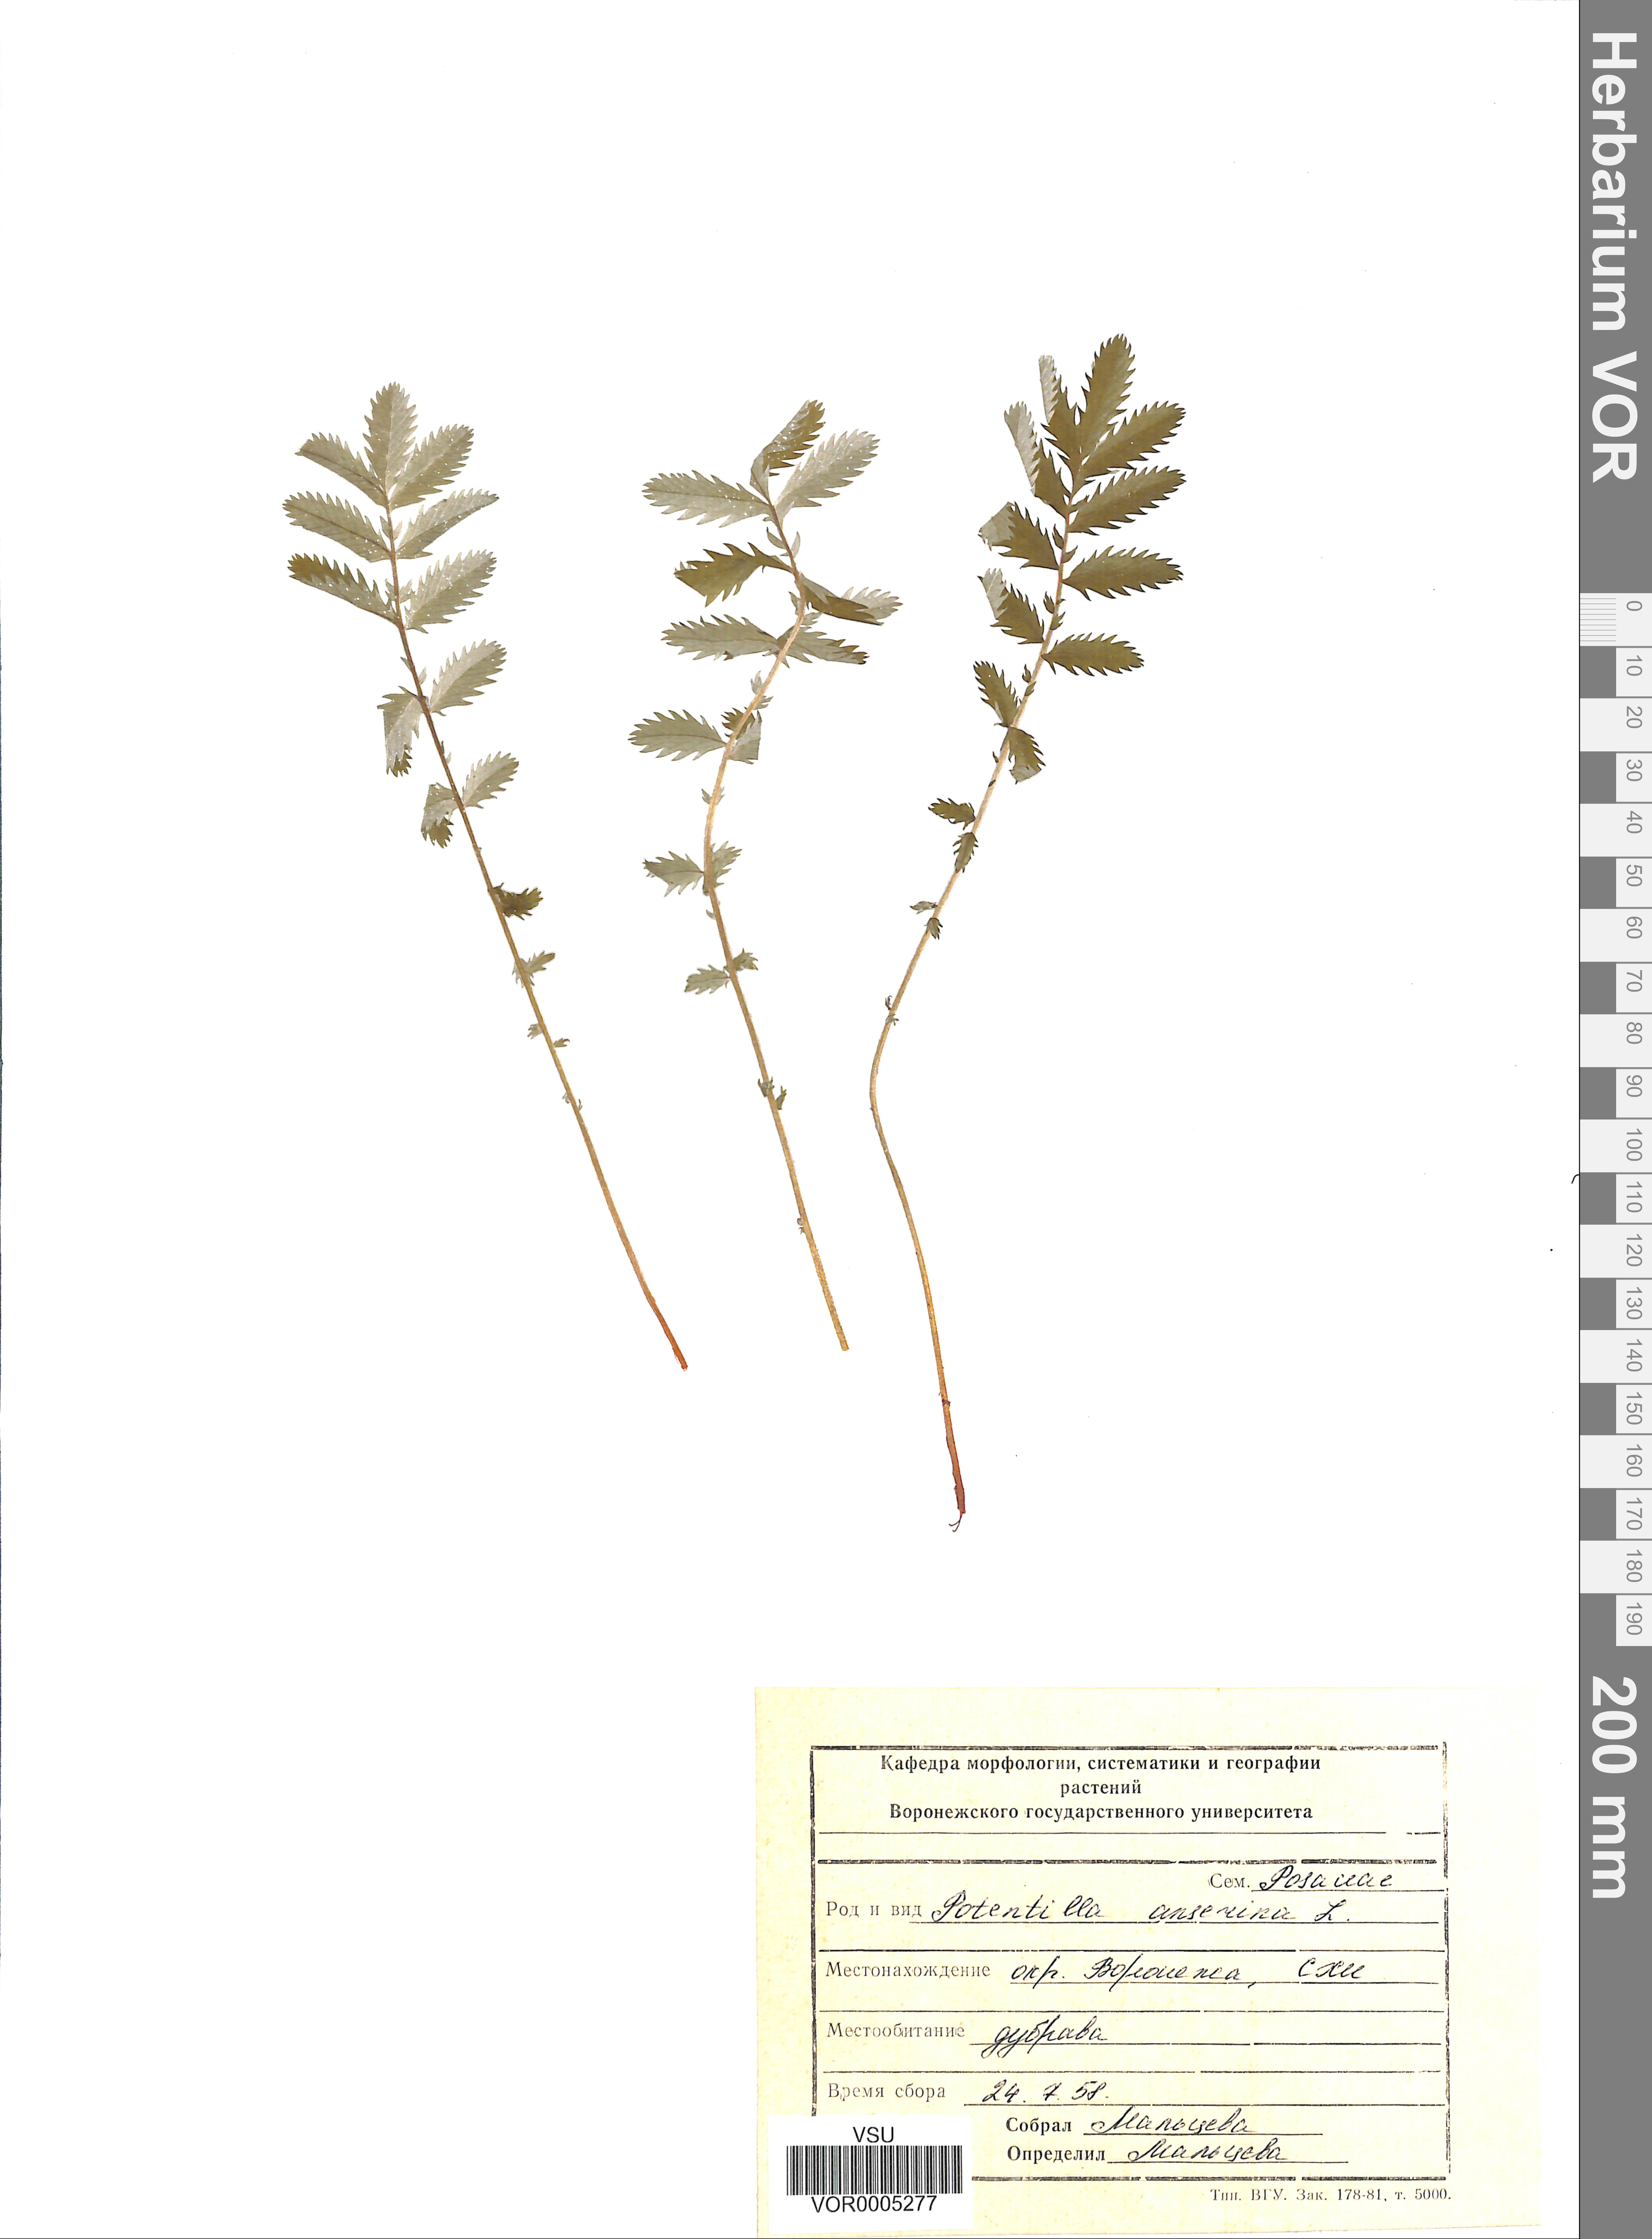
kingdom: Plantae
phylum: Tracheophyta
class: Magnoliopsida
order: Rosales
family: Rosaceae
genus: Argentina
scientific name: Argentina anserina
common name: Common silverweed
